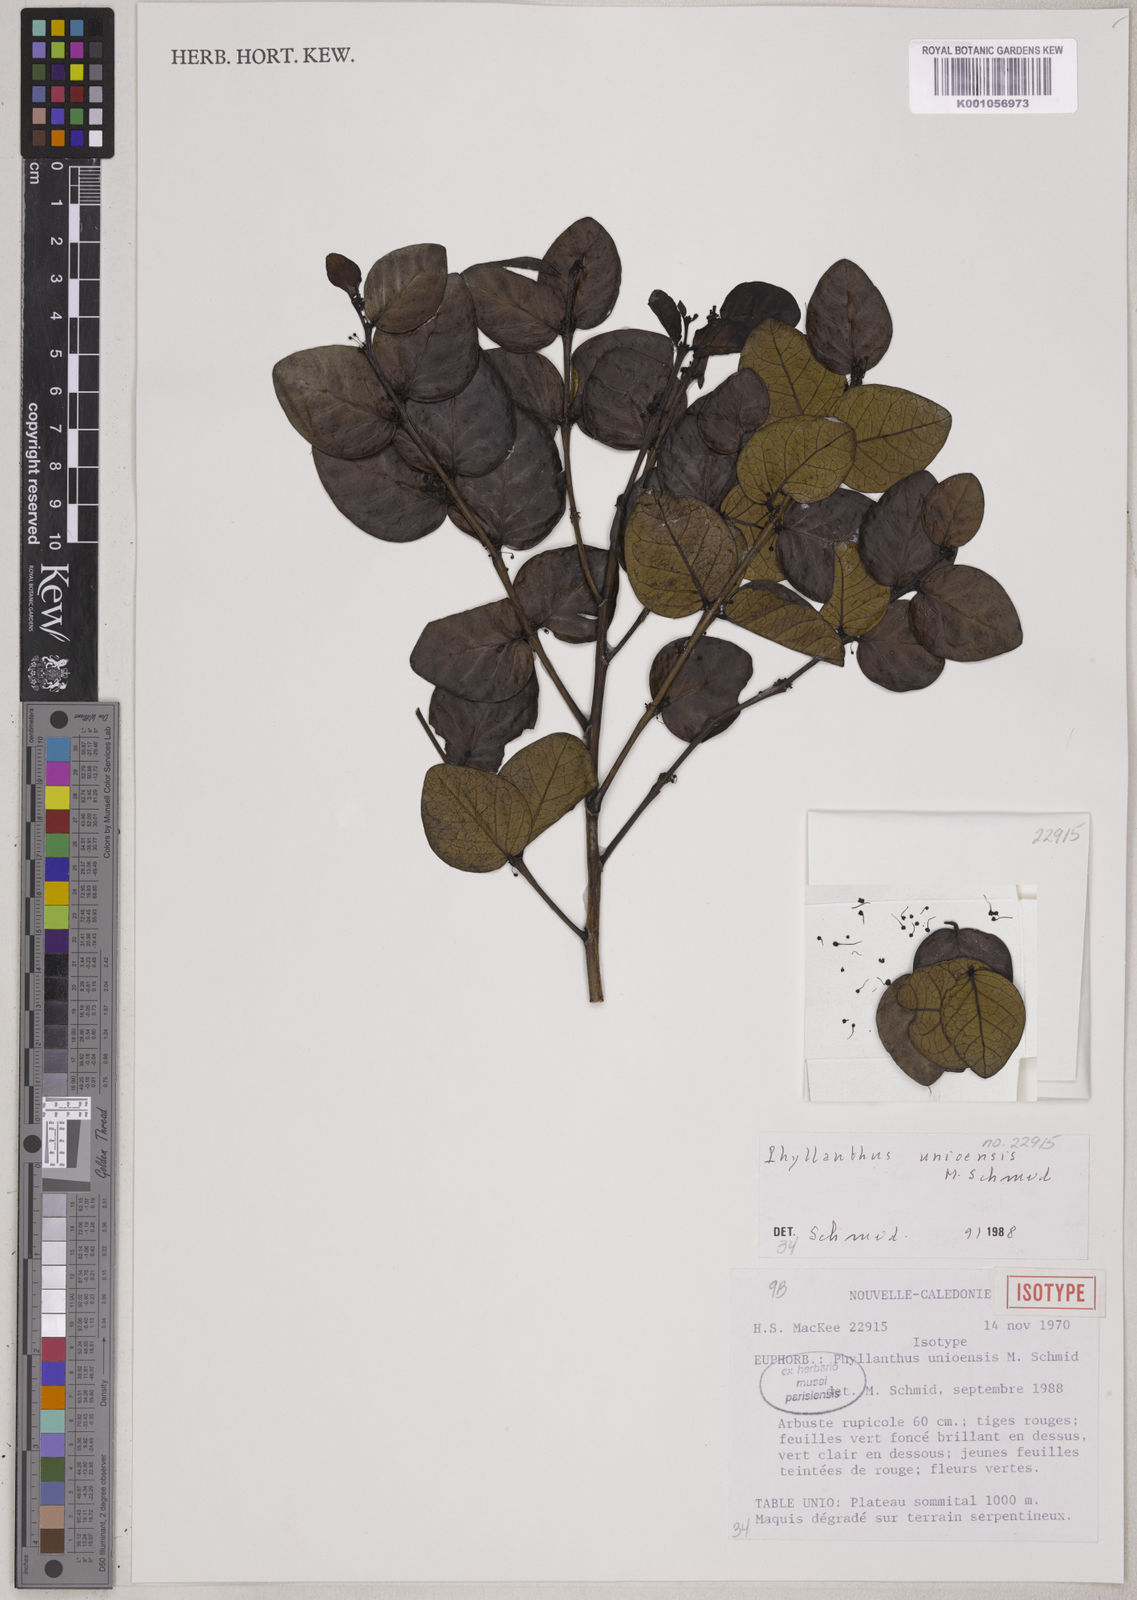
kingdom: Plantae
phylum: Tracheophyta
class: Magnoliopsida
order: Malpighiales
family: Phyllanthaceae
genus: Phyllanthus
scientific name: Phyllanthus unioensis
